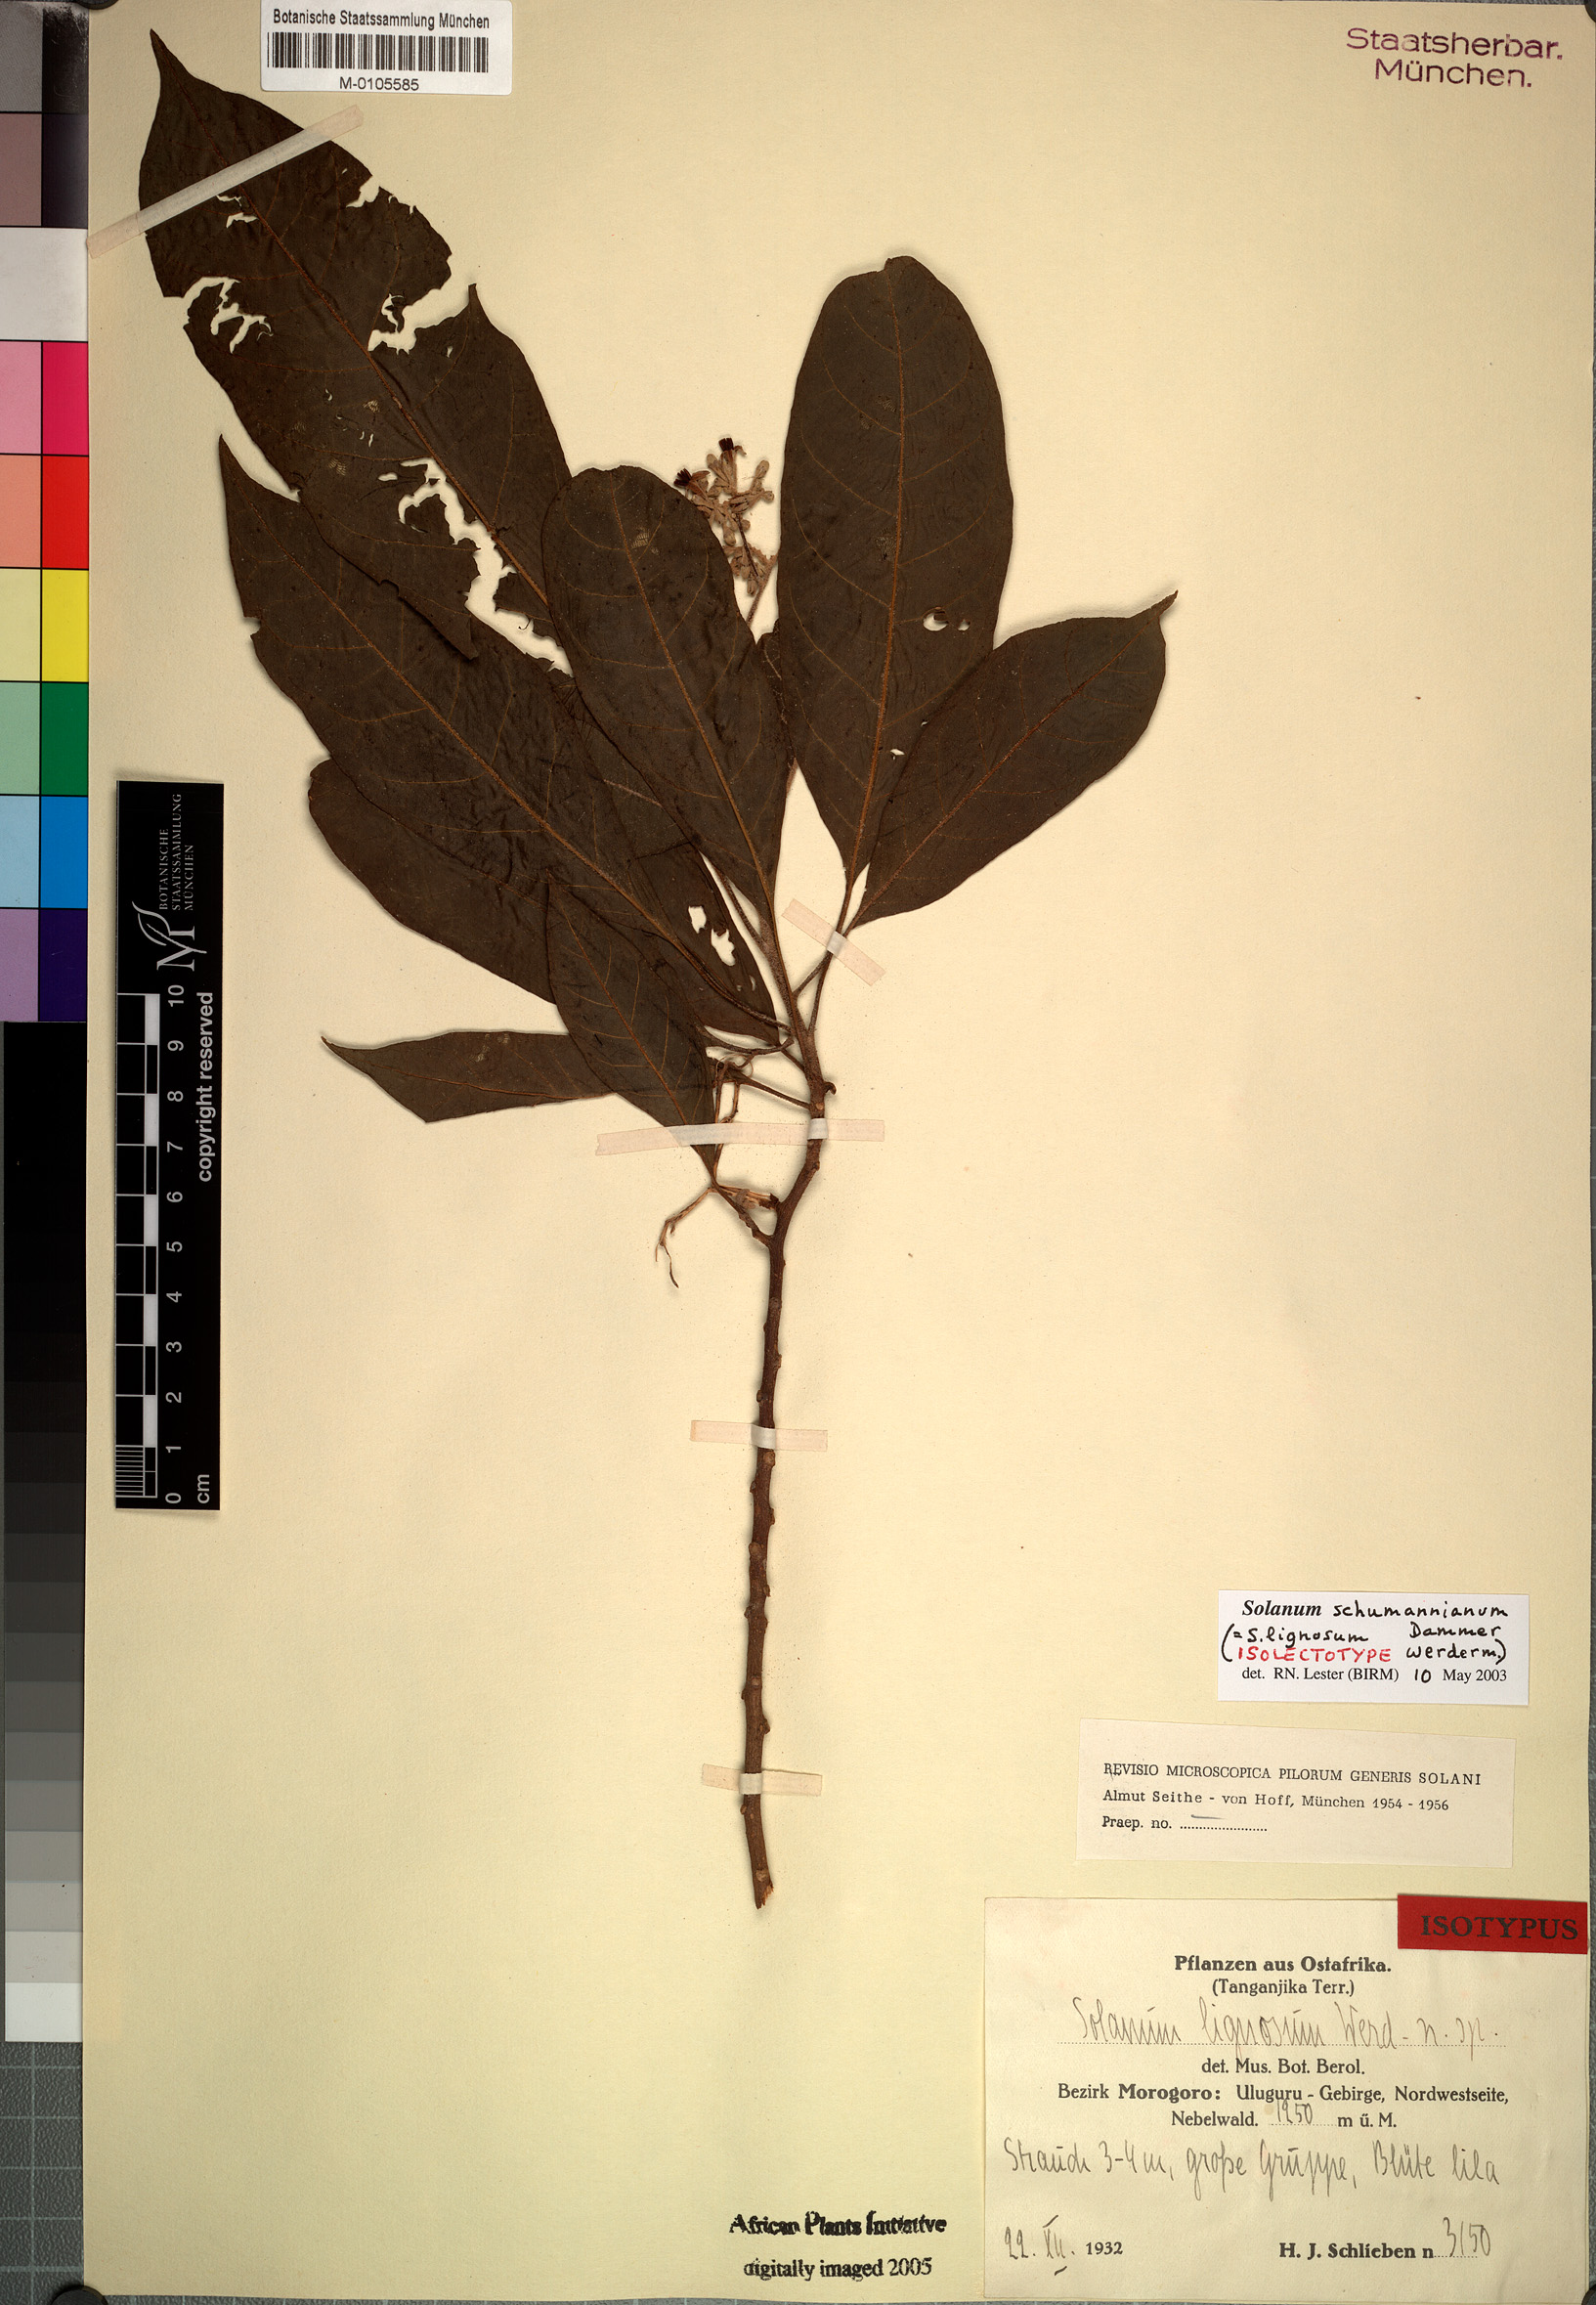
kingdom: Plantae
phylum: Tracheophyta
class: Magnoliopsida
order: Solanales
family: Solanaceae
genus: Solanum
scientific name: Solanum schumannianum
